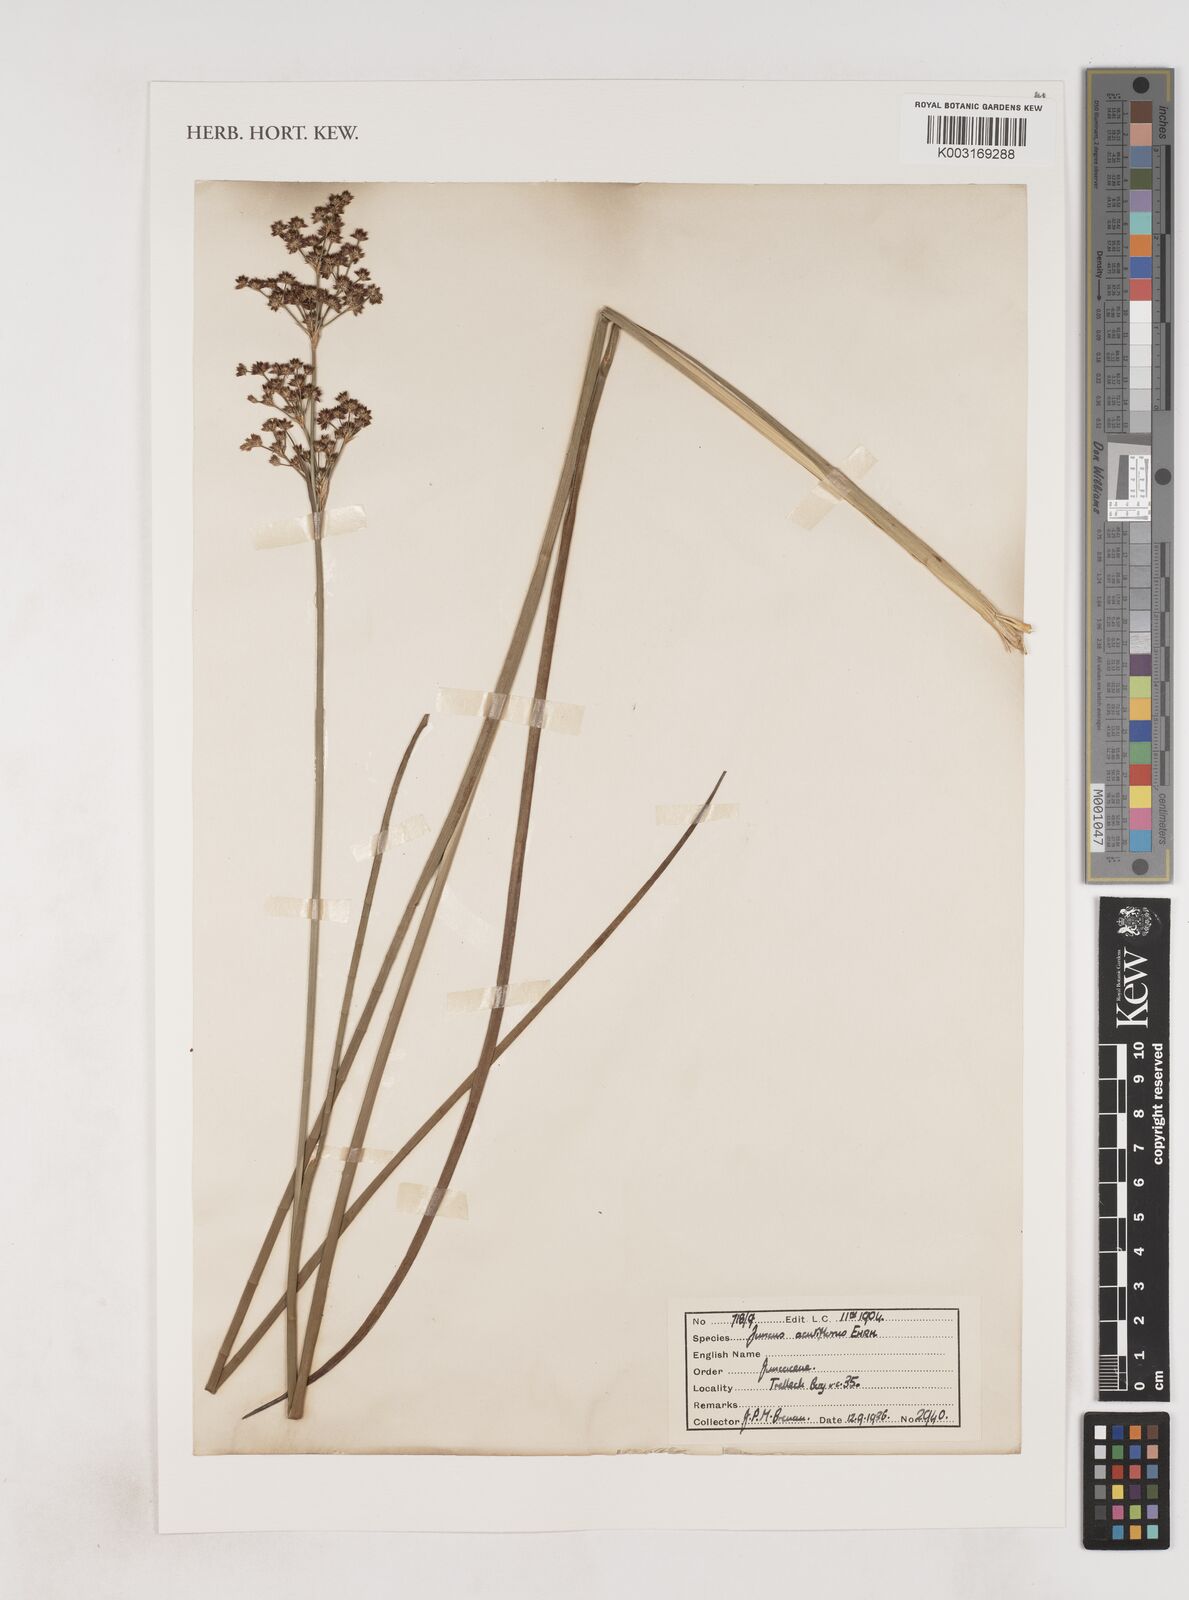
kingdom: Plantae
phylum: Tracheophyta
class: Liliopsida
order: Poales
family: Juncaceae
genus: Juncus
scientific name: Juncus acutiflorus
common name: Sharp-flowered rush
